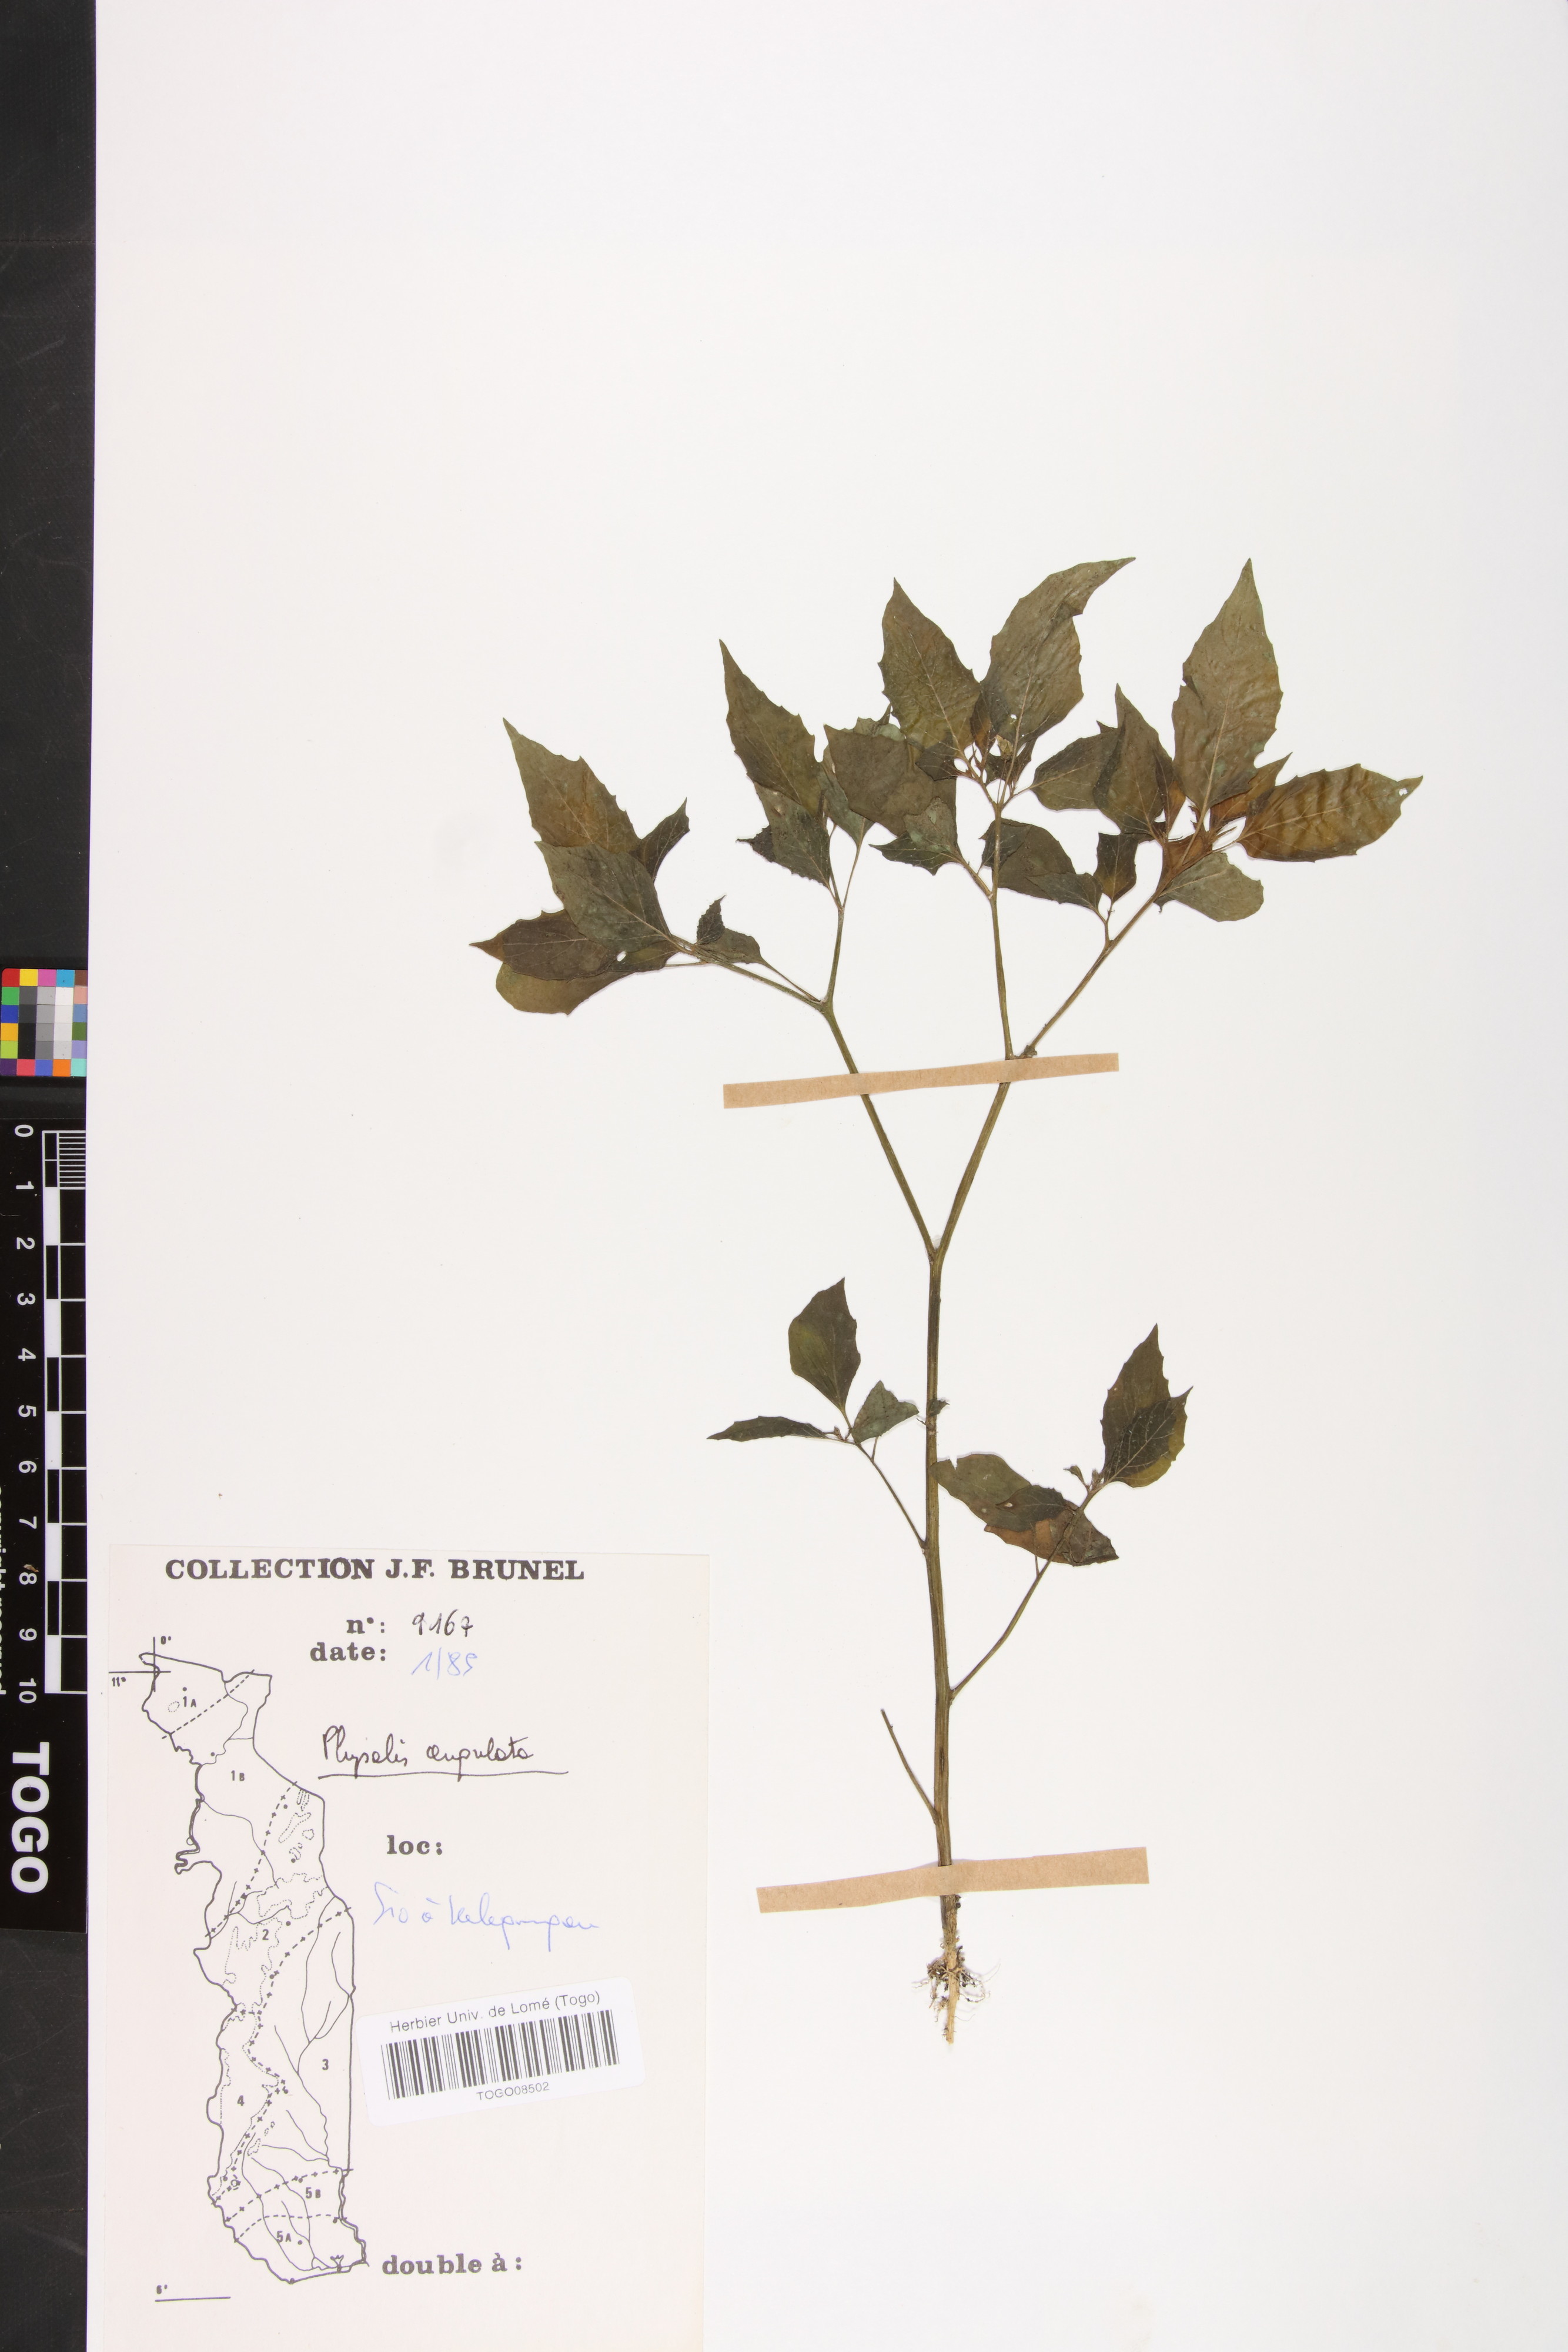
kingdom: Plantae
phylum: Tracheophyta
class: Magnoliopsida
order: Solanales
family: Solanaceae
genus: Physalis
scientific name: Physalis angulata
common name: Angular winter-cherry
